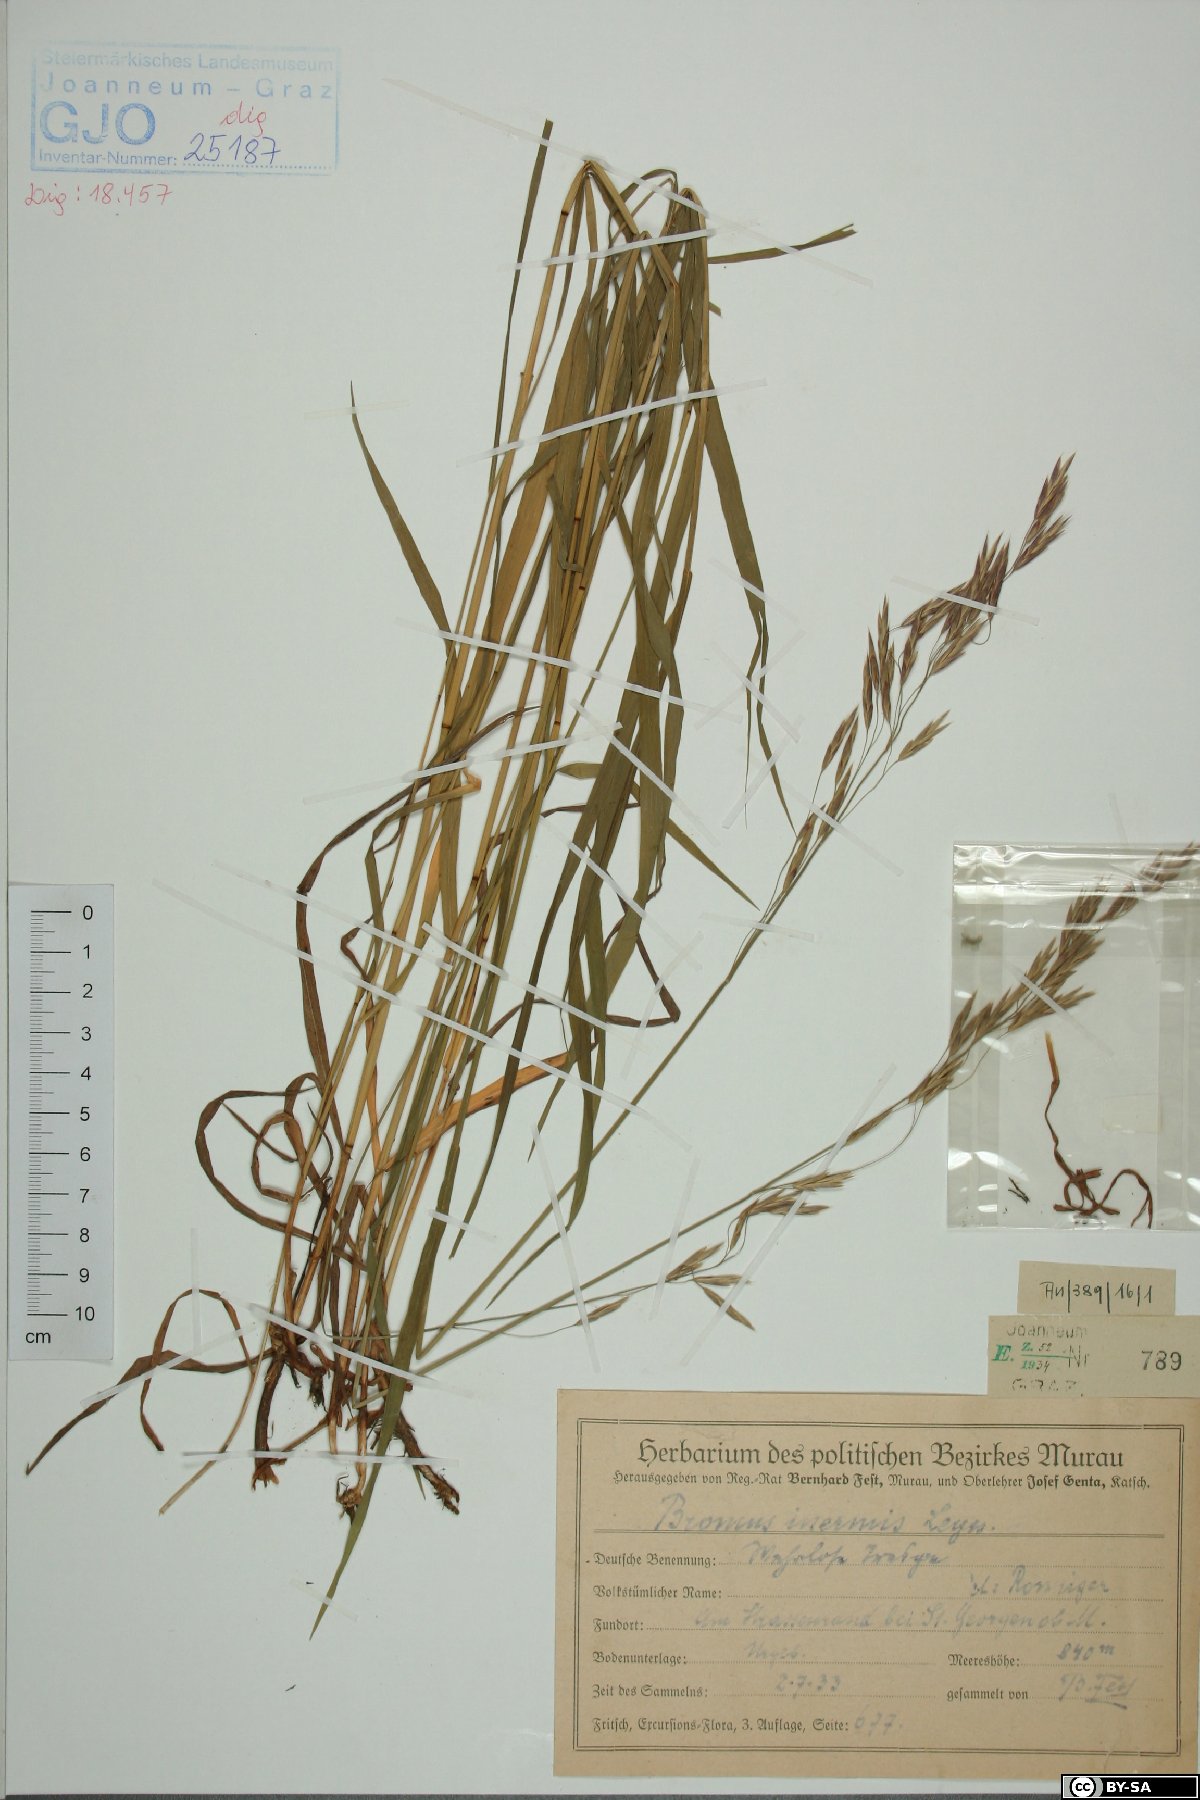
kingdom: Plantae
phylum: Tracheophyta
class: Liliopsida
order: Poales
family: Poaceae
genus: Bromus
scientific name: Bromus inermis
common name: Smooth brome
